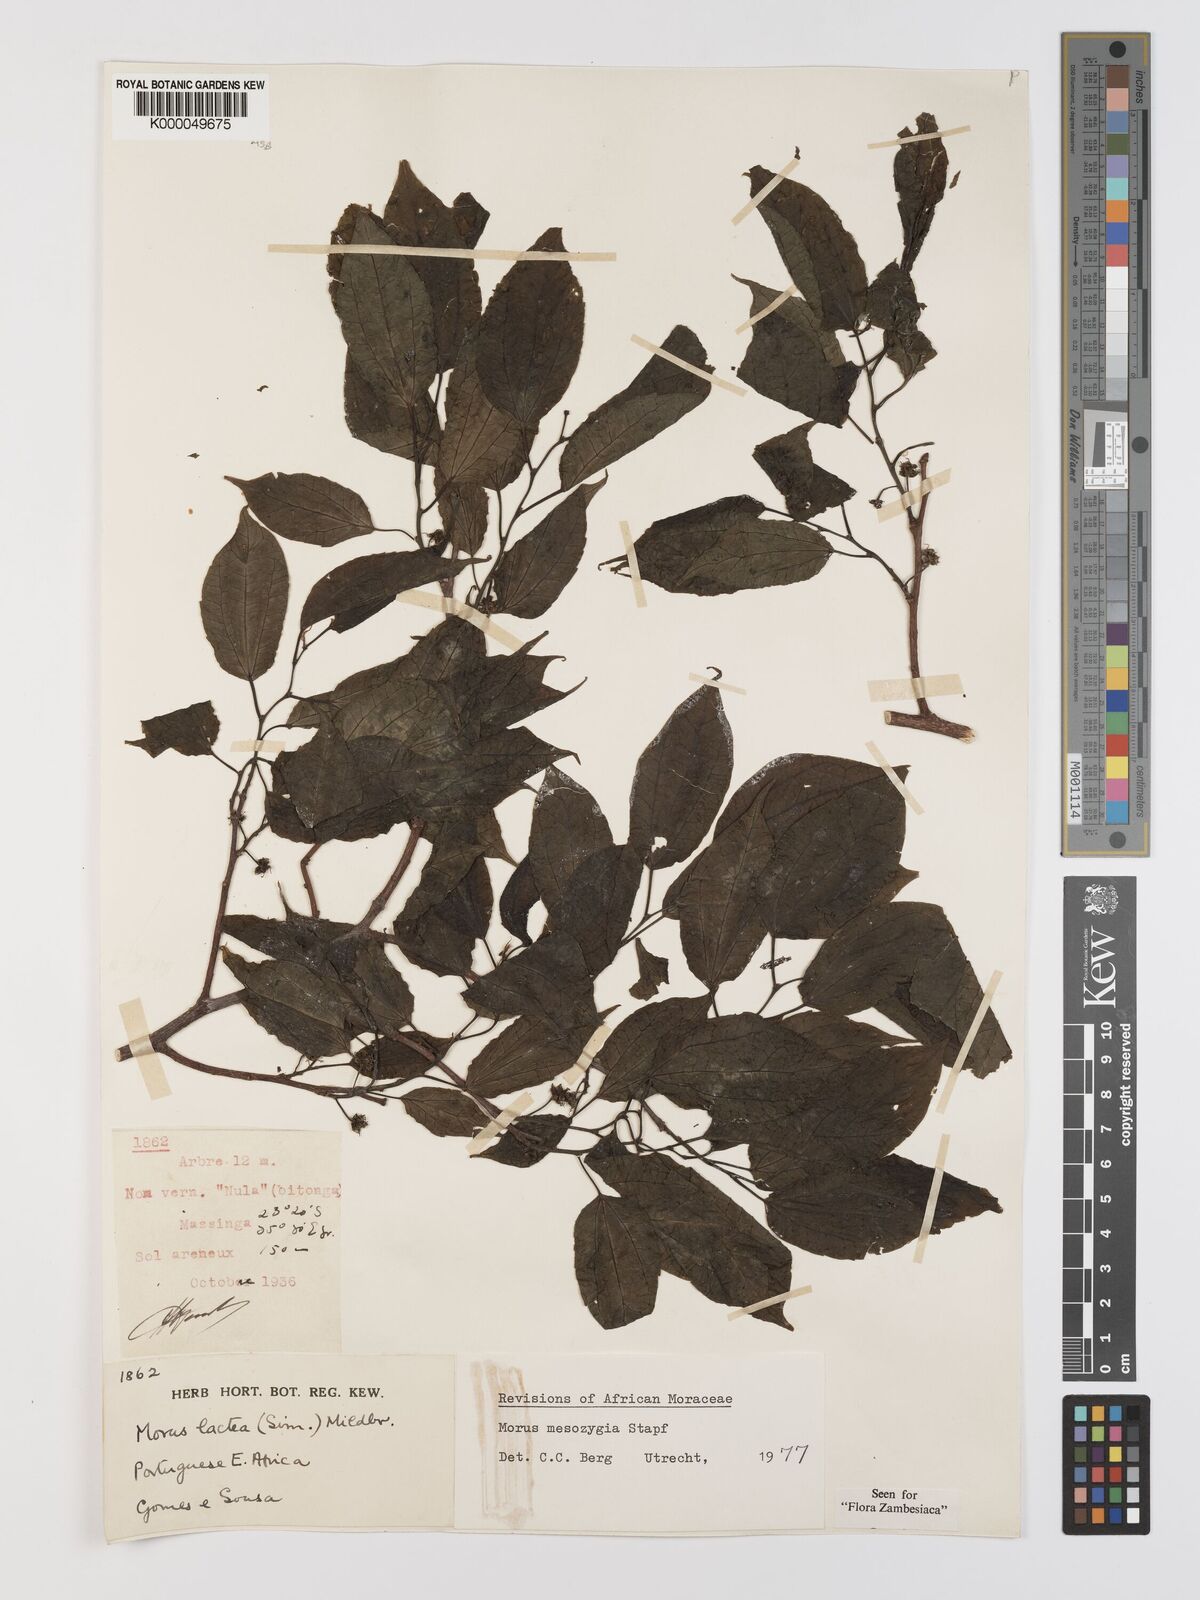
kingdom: Plantae
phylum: Tracheophyta
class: Magnoliopsida
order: Rosales
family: Moraceae
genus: Afromorus
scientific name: Afromorus mesozygia
